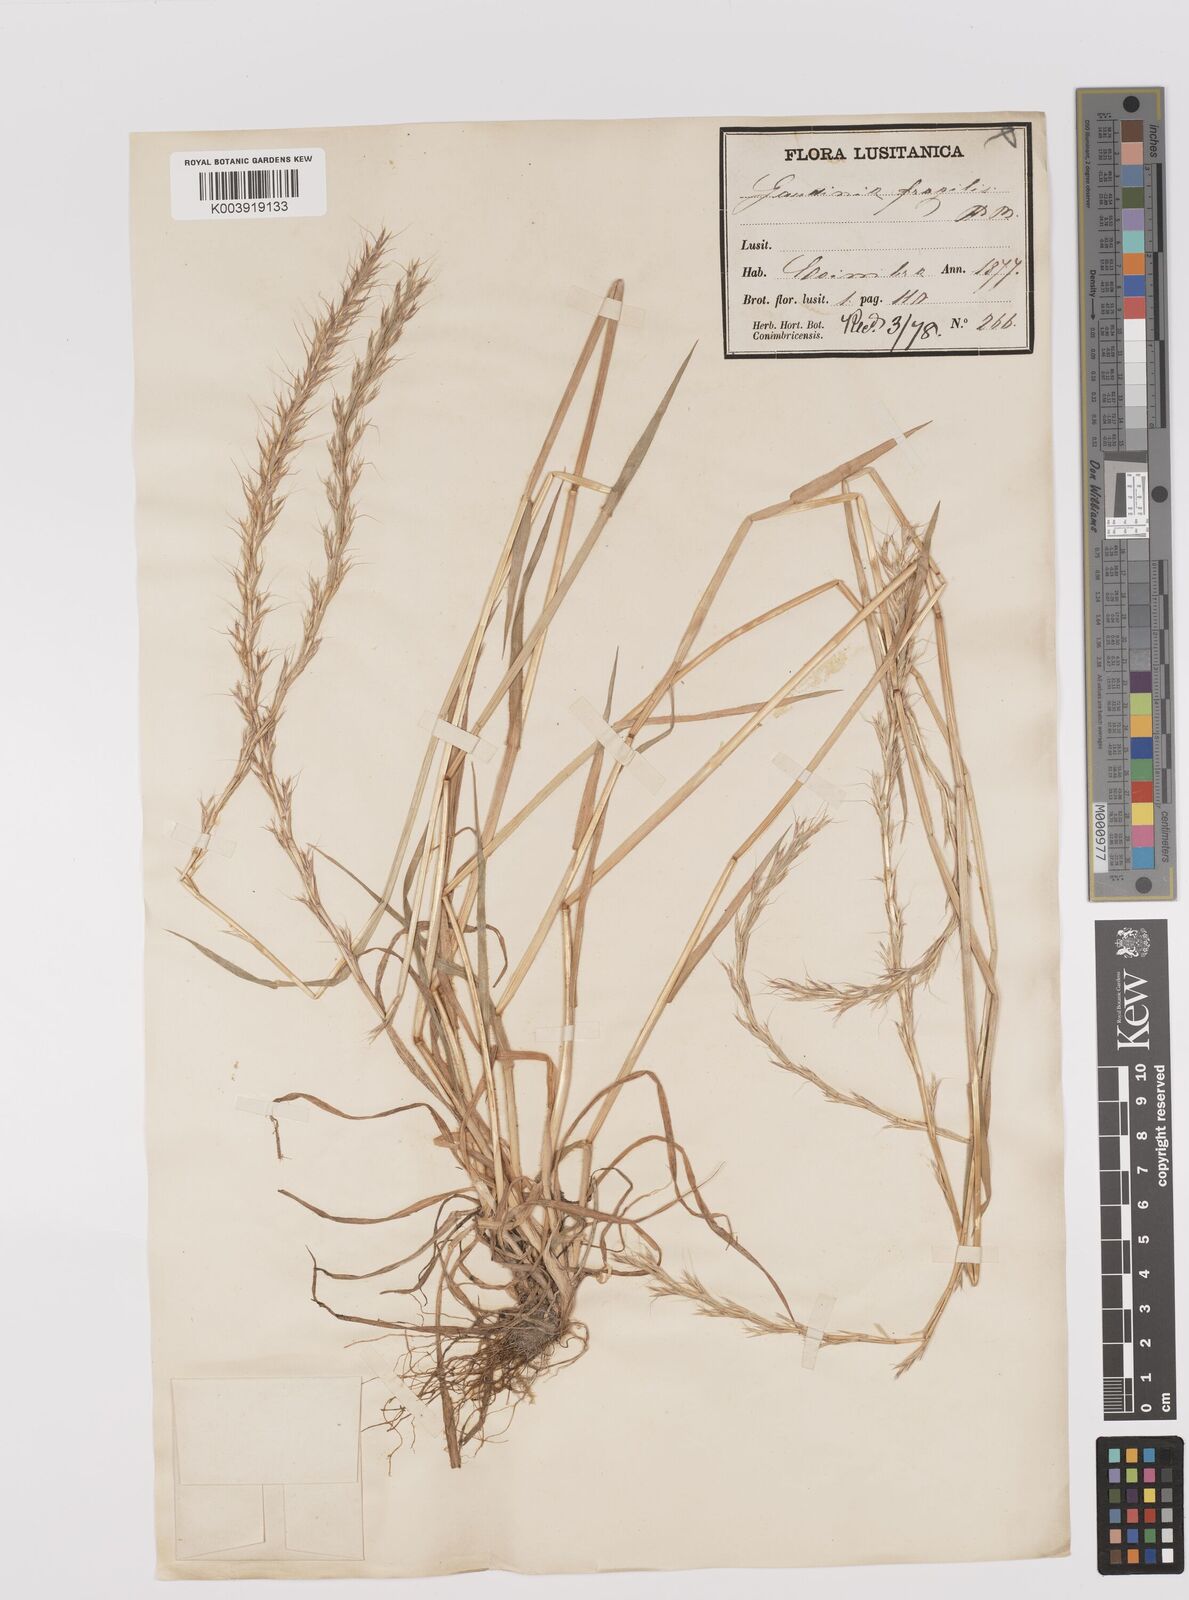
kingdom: Plantae
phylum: Tracheophyta
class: Liliopsida
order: Poales
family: Poaceae
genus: Gaudinia
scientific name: Gaudinia fragilis
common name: French oat-grass
